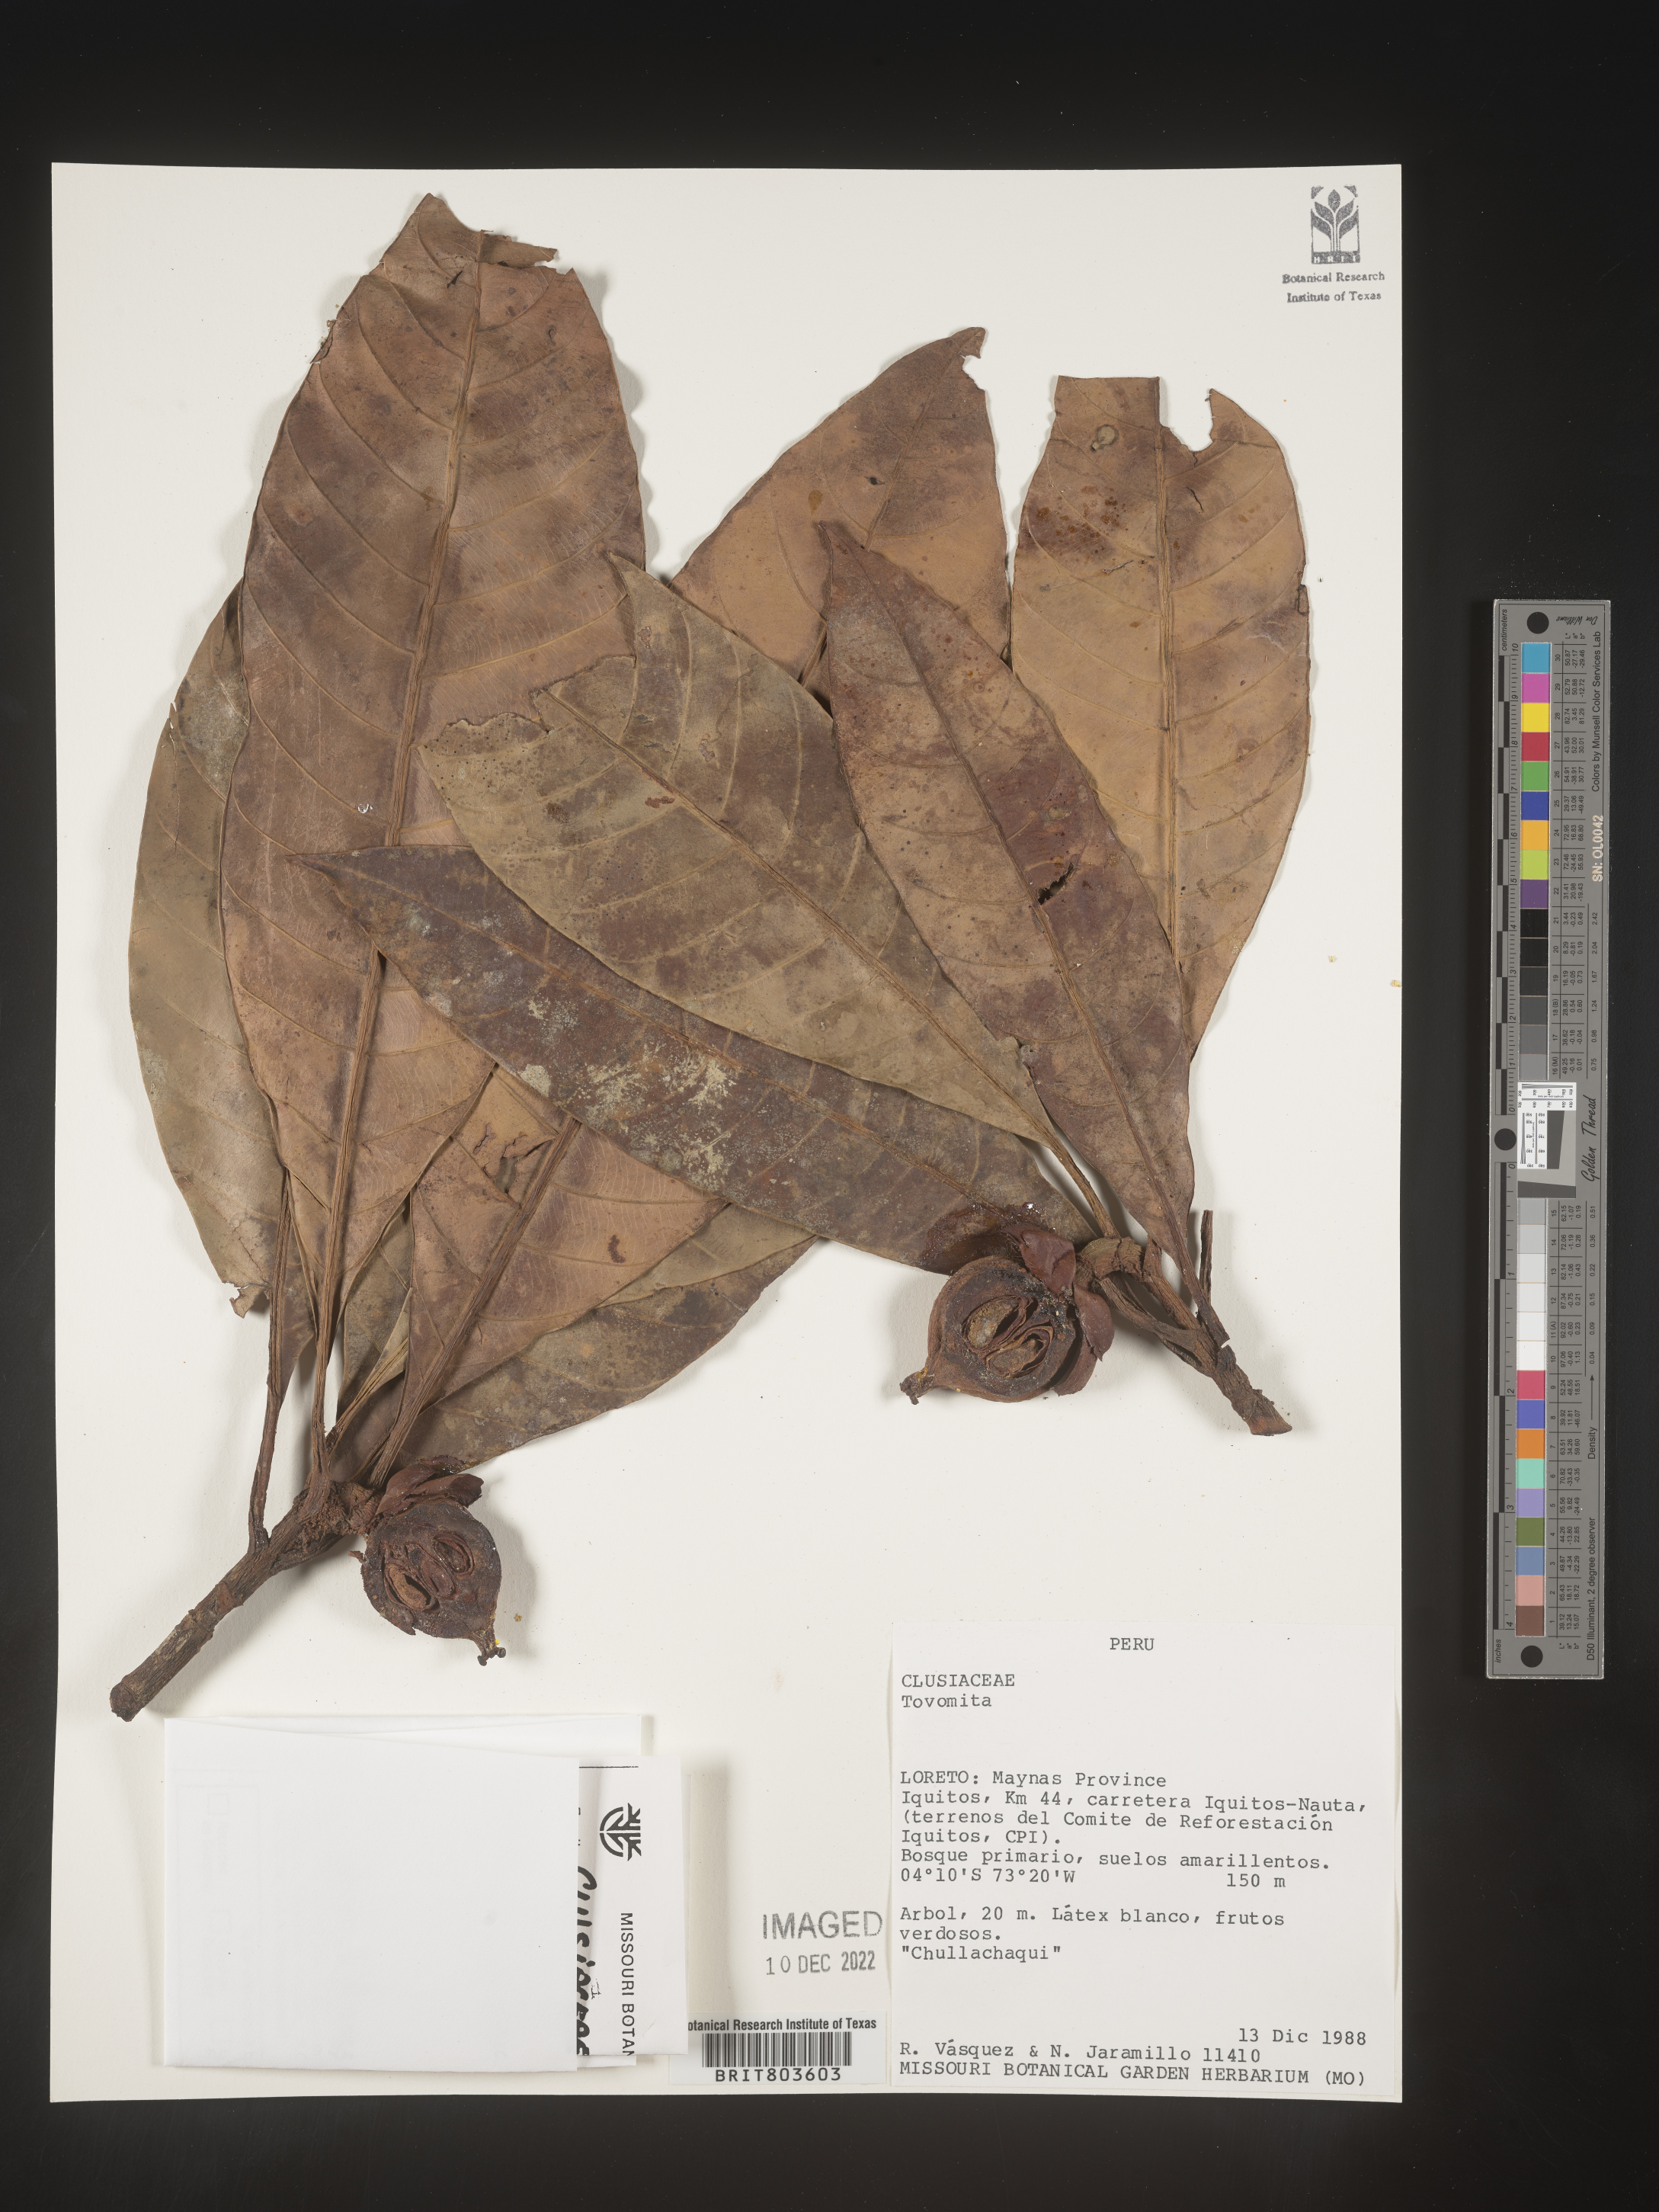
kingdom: Plantae
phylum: Tracheophyta
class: Magnoliopsida
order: Malpighiales
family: Clusiaceae
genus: Tovomita
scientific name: Tovomita
